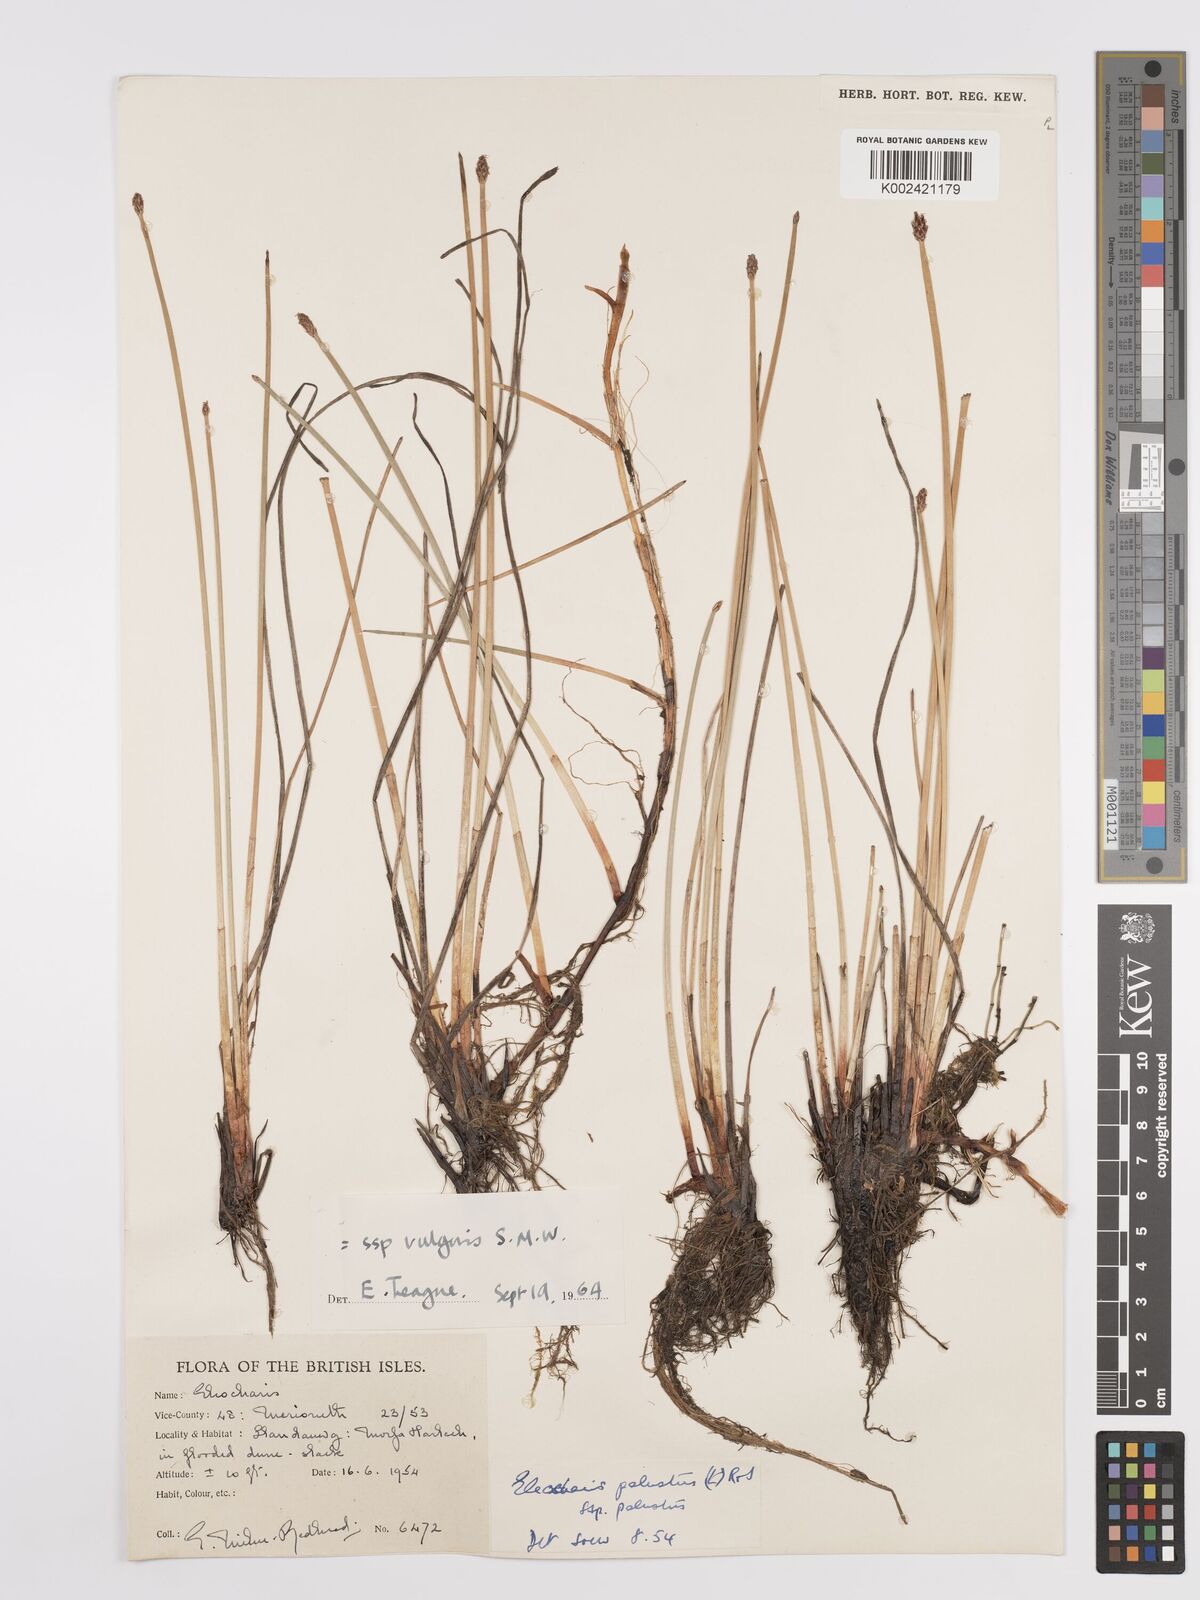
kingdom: Plantae
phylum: Tracheophyta
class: Liliopsida
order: Poales
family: Cyperaceae
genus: Eleocharis
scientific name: Eleocharis palustris
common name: Common spike-rush
